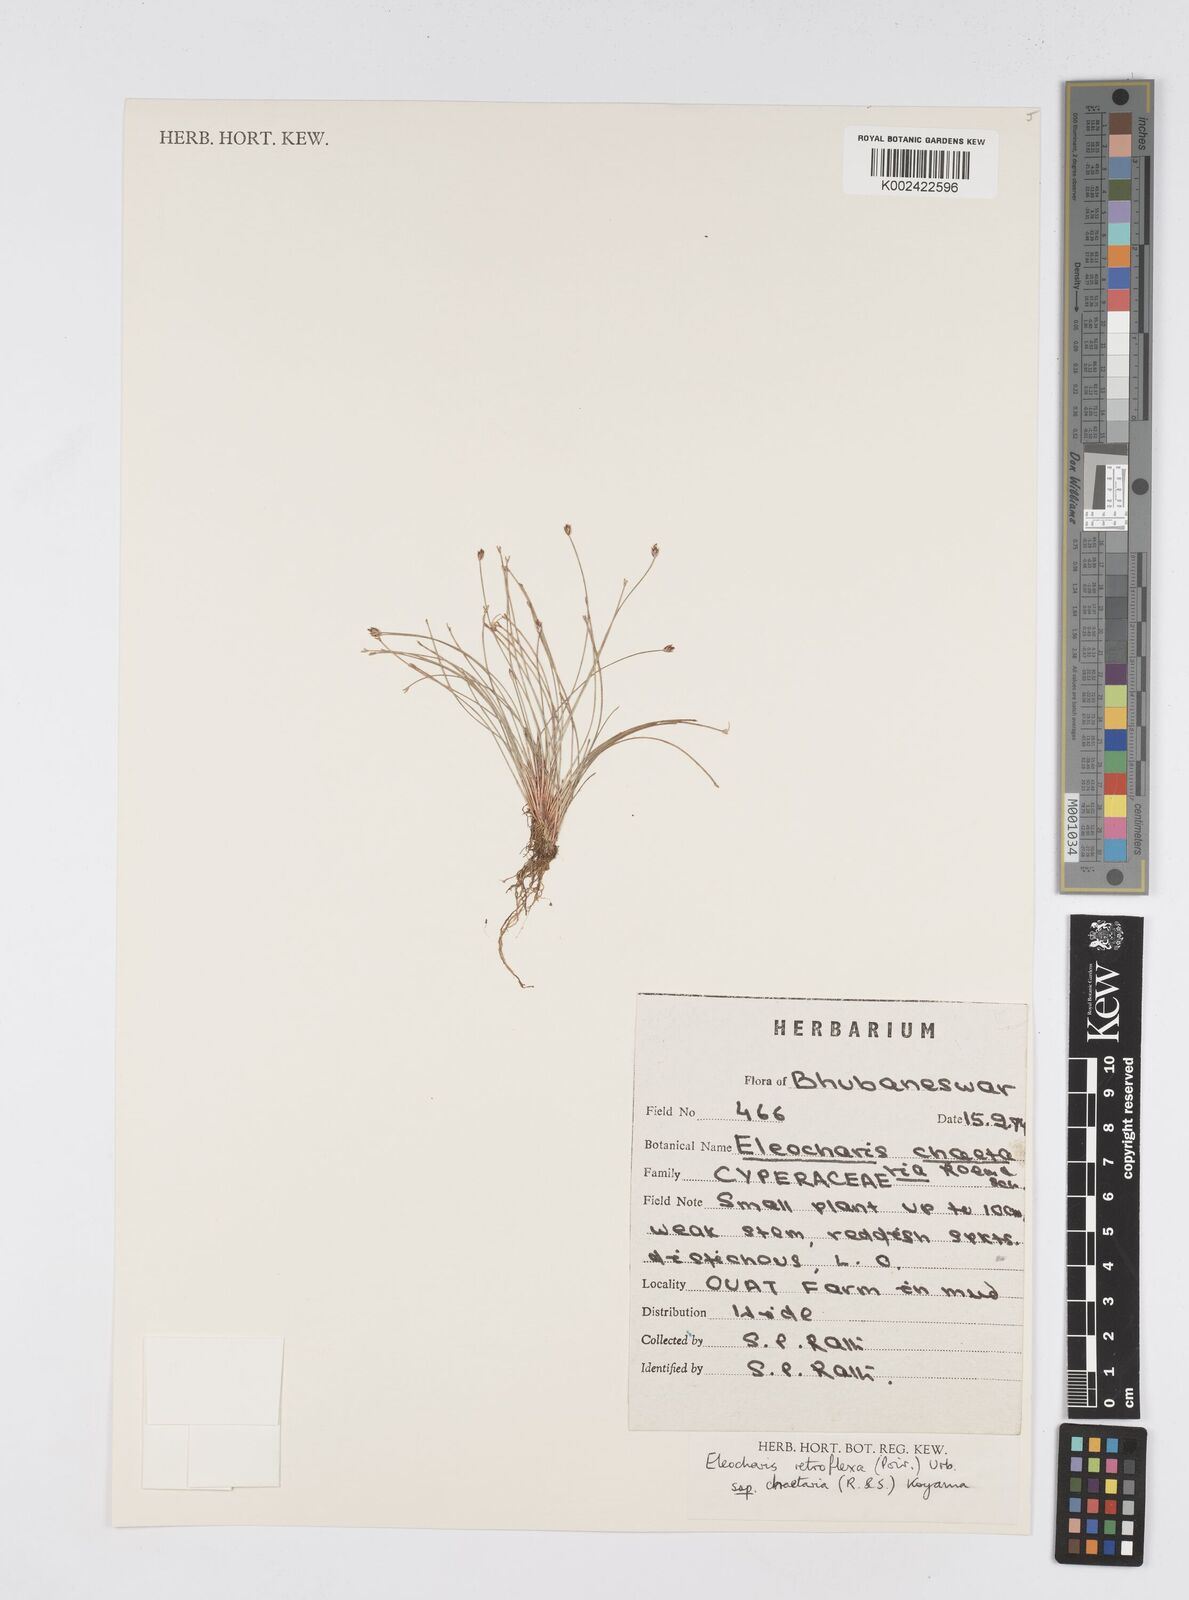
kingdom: Plantae
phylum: Tracheophyta
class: Liliopsida
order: Poales
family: Cyperaceae
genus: Eleocharis
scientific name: Eleocharis retroflexa
